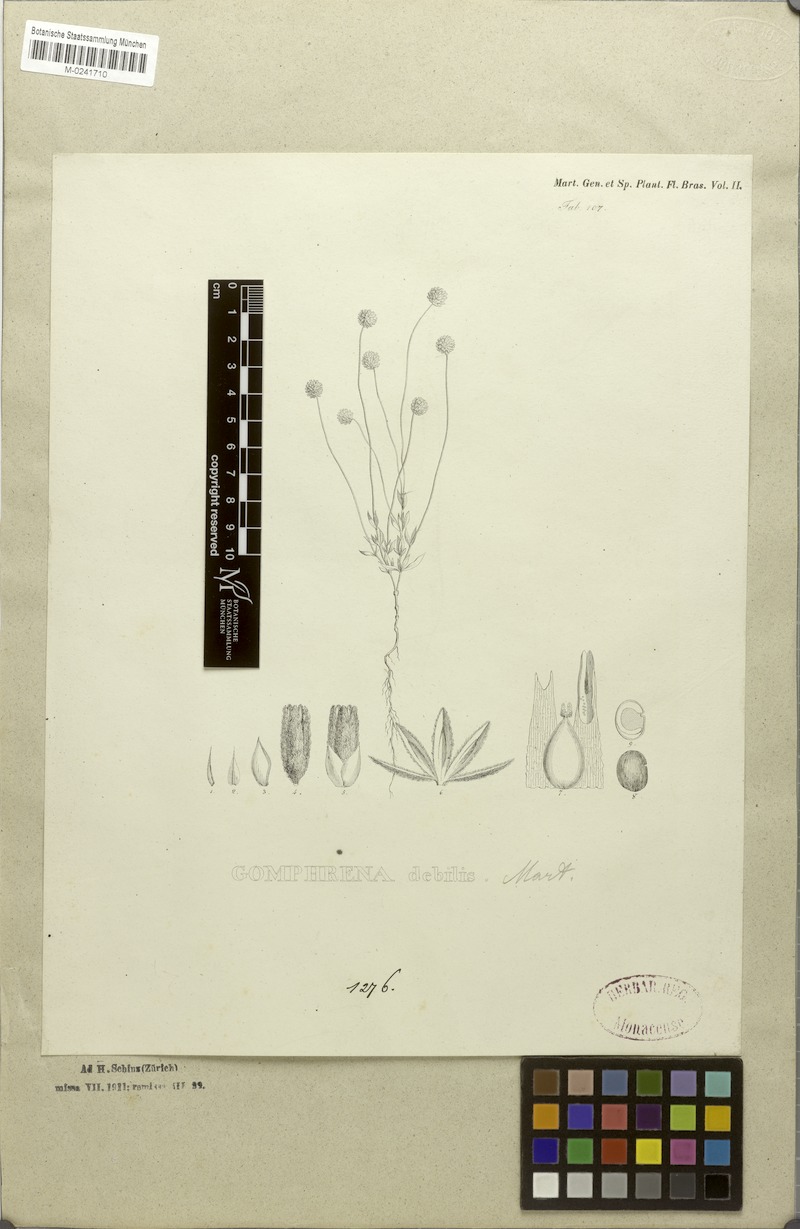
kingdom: Plantae
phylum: Tracheophyta
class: Magnoliopsida
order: Caryophyllales
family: Amaranthaceae
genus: Gomphrena
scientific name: Gomphrena debilis
